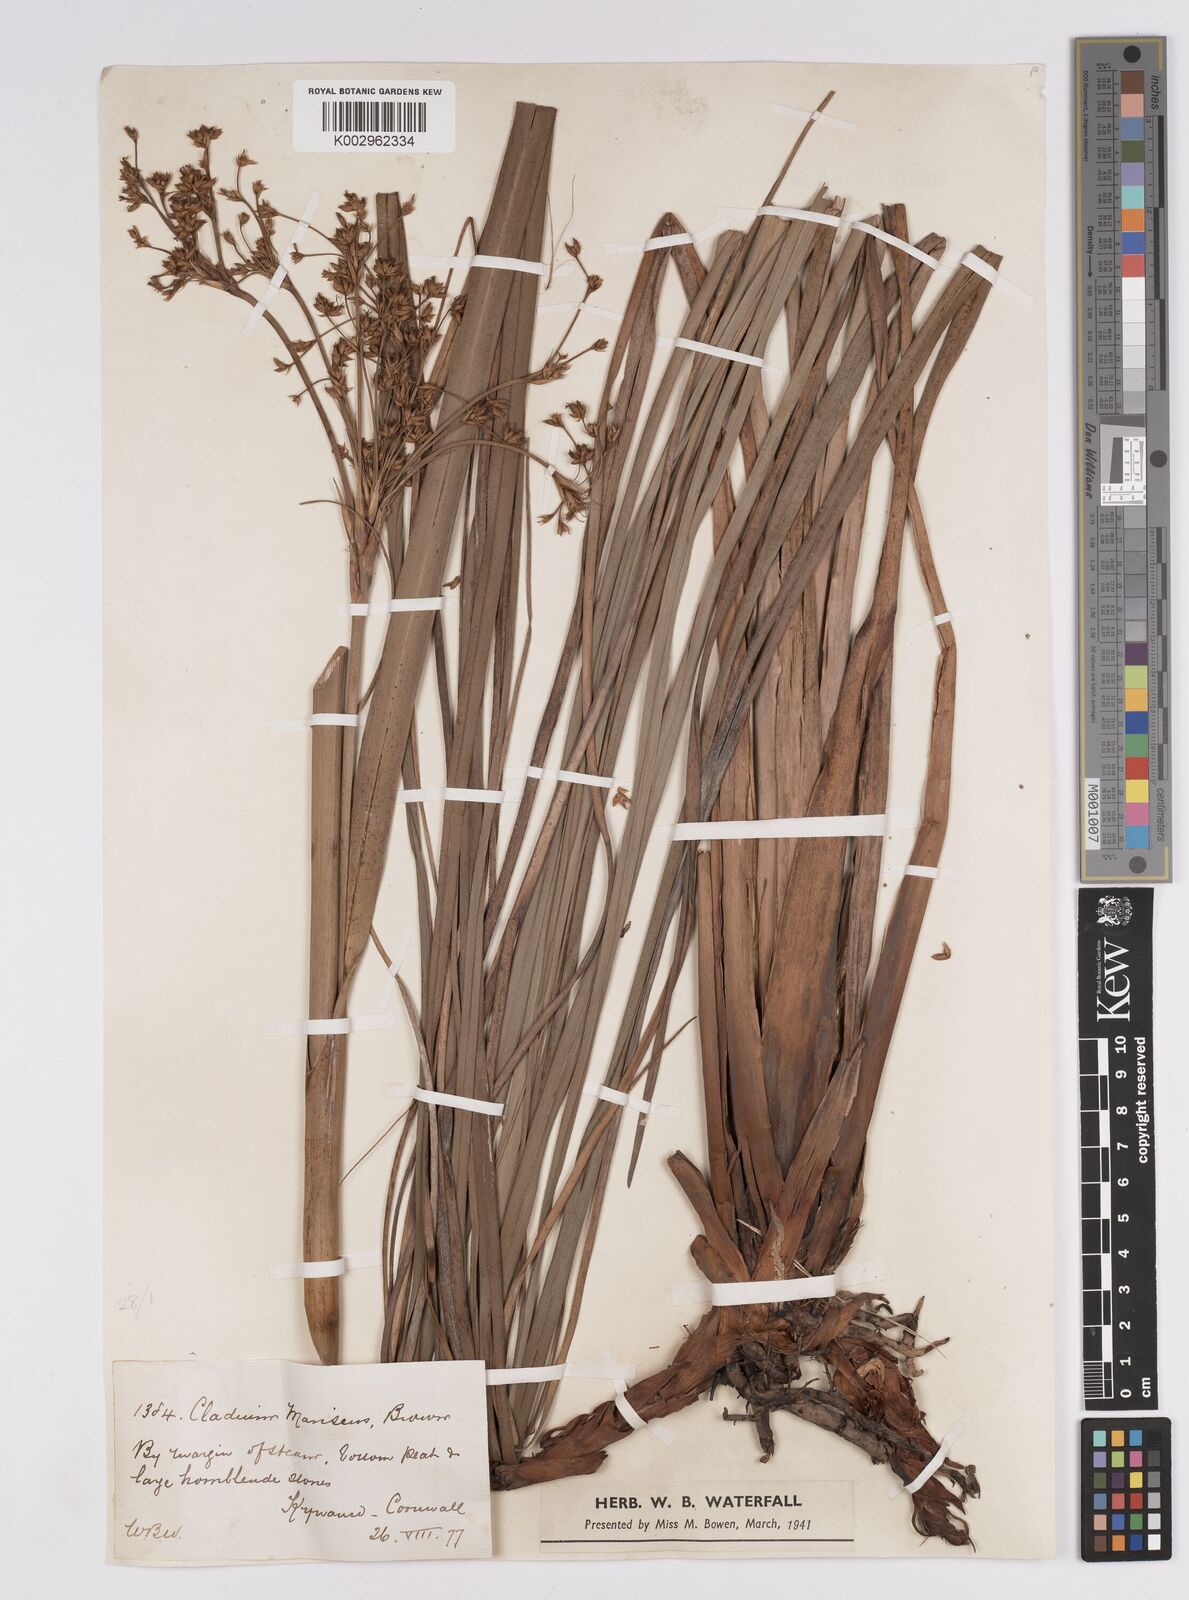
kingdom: Plantae
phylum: Tracheophyta
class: Liliopsida
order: Poales
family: Cyperaceae
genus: Cladium
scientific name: Cladium mariscus
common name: Great fen-sedge
